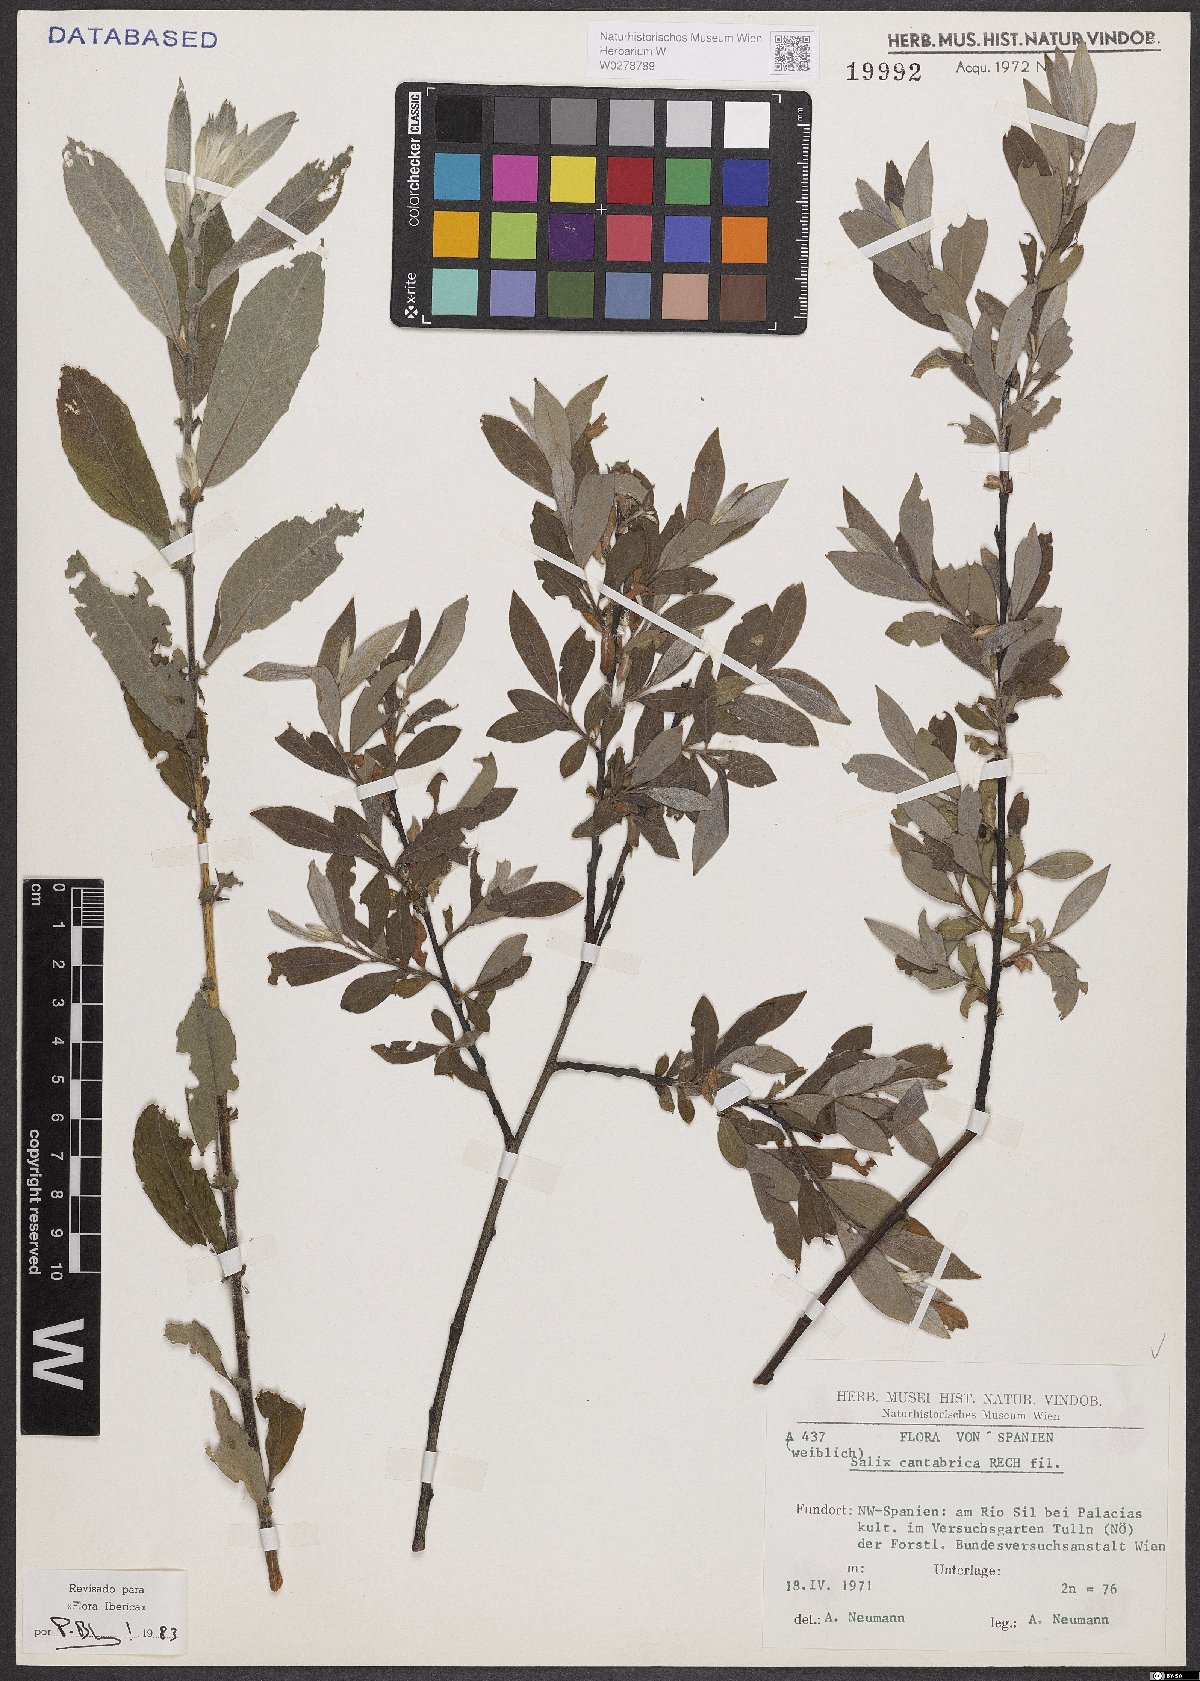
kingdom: Plantae
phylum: Tracheophyta
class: Magnoliopsida
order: Malpighiales
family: Salicaceae
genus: Salix
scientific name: Salix cantabrica
